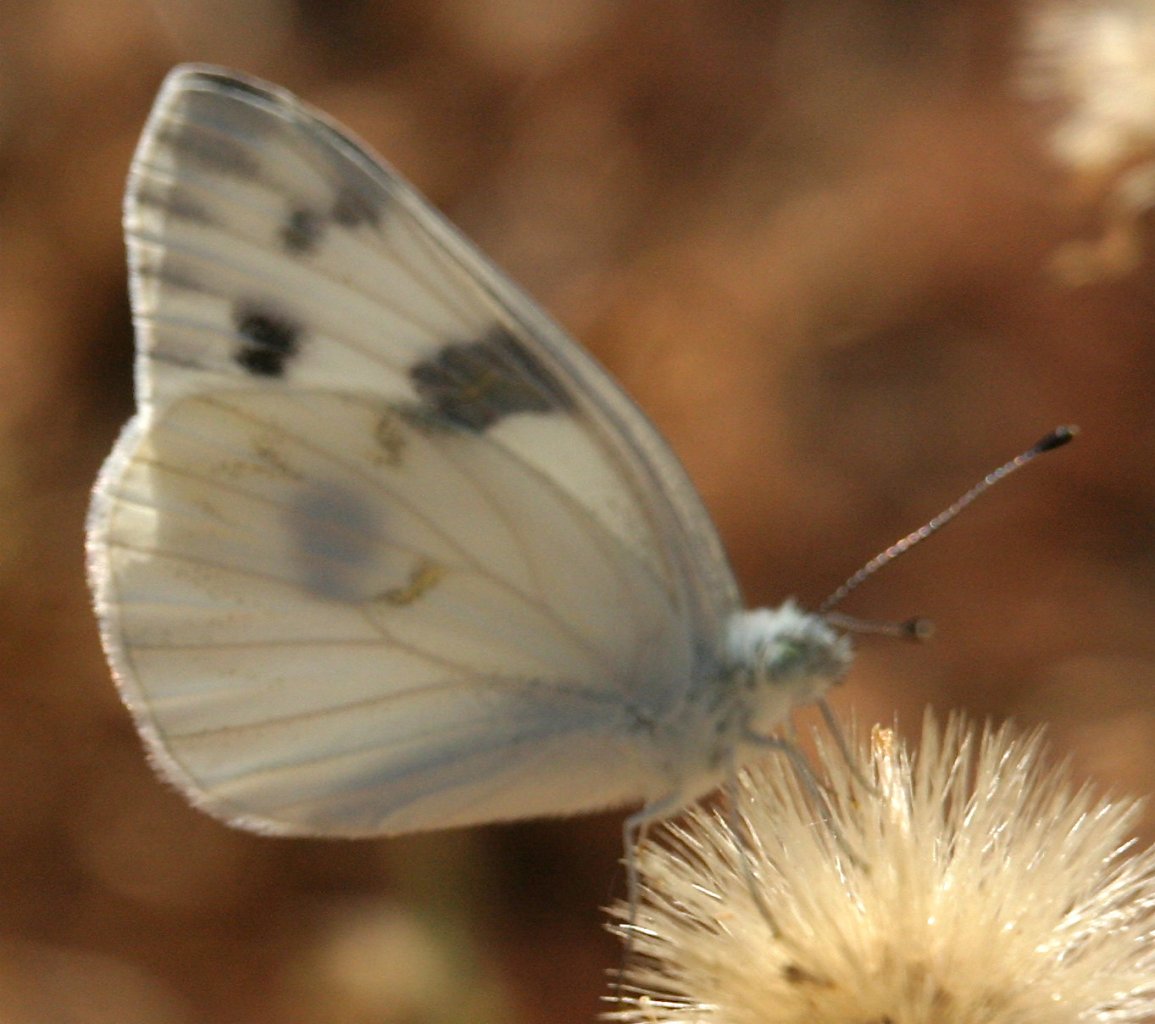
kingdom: Animalia
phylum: Arthropoda
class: Insecta
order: Lepidoptera
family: Pieridae
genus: Pontia
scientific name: Pontia protodice
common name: Checkered White
